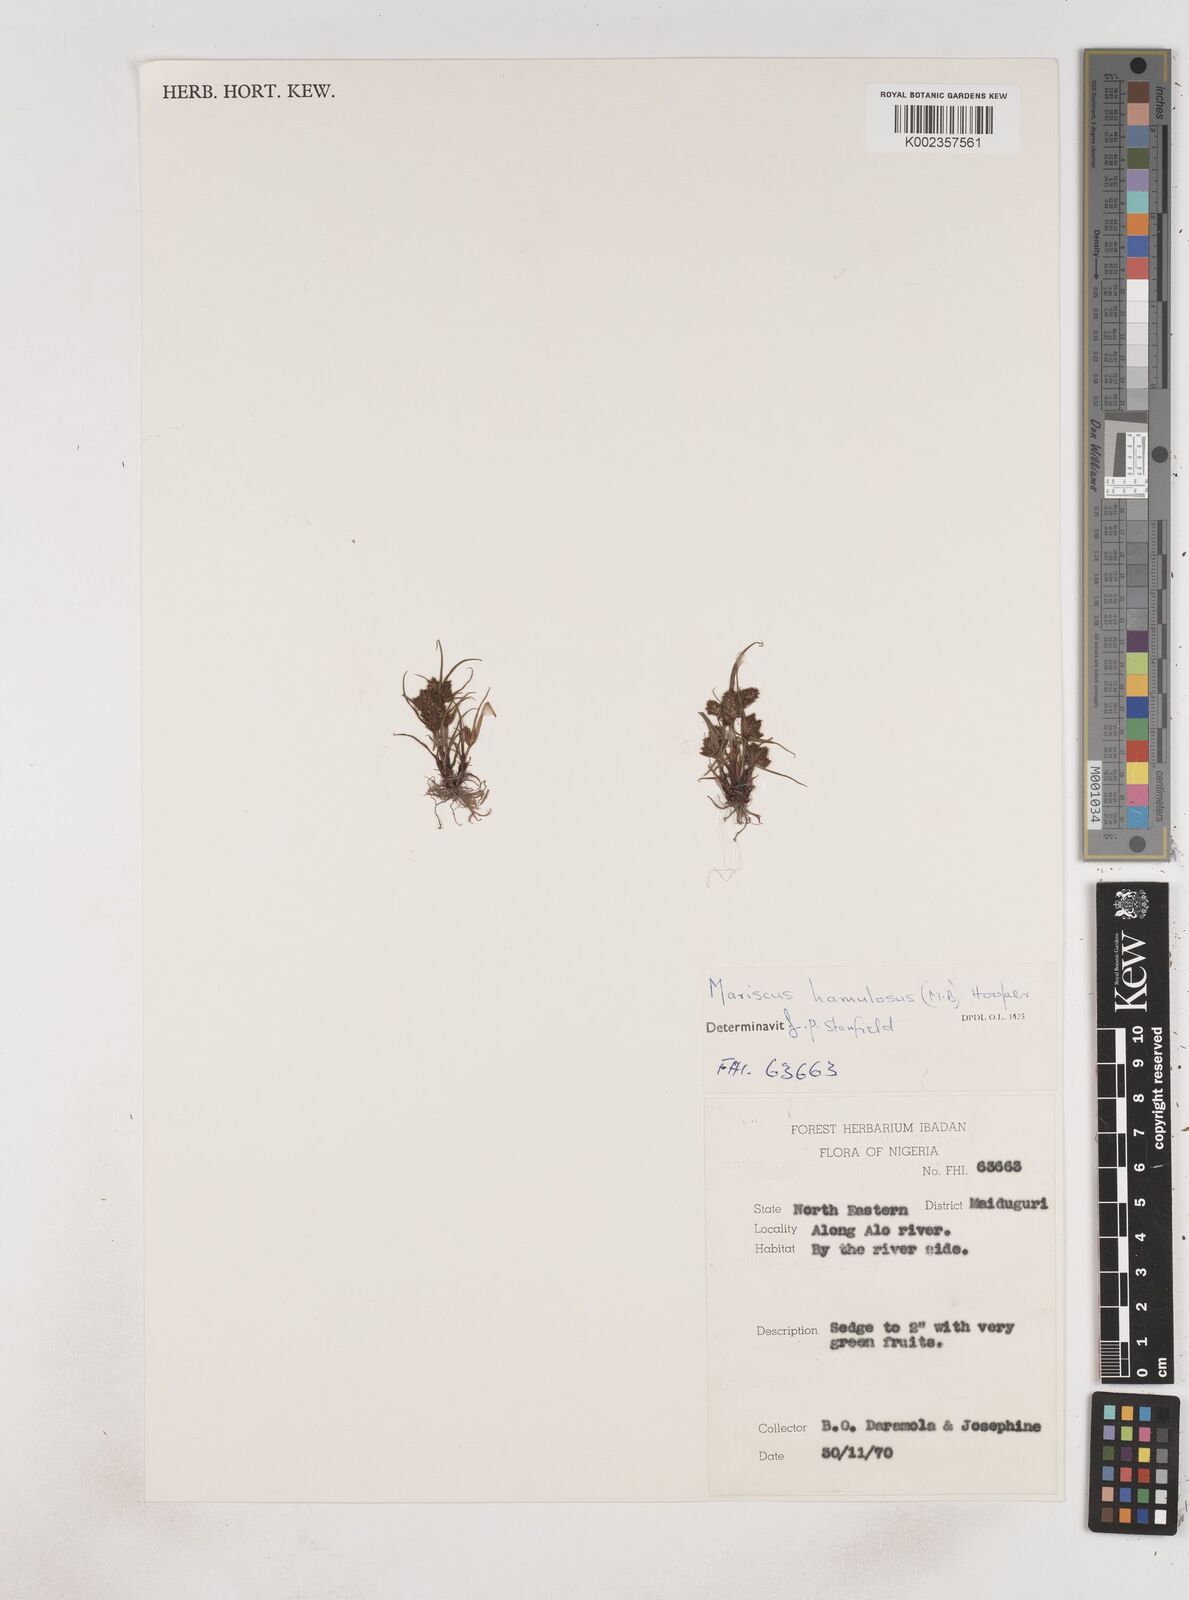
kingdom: Plantae
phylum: Tracheophyta
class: Liliopsida
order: Poales
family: Cyperaceae
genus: Cyperus
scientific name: Cyperus hamulosus
